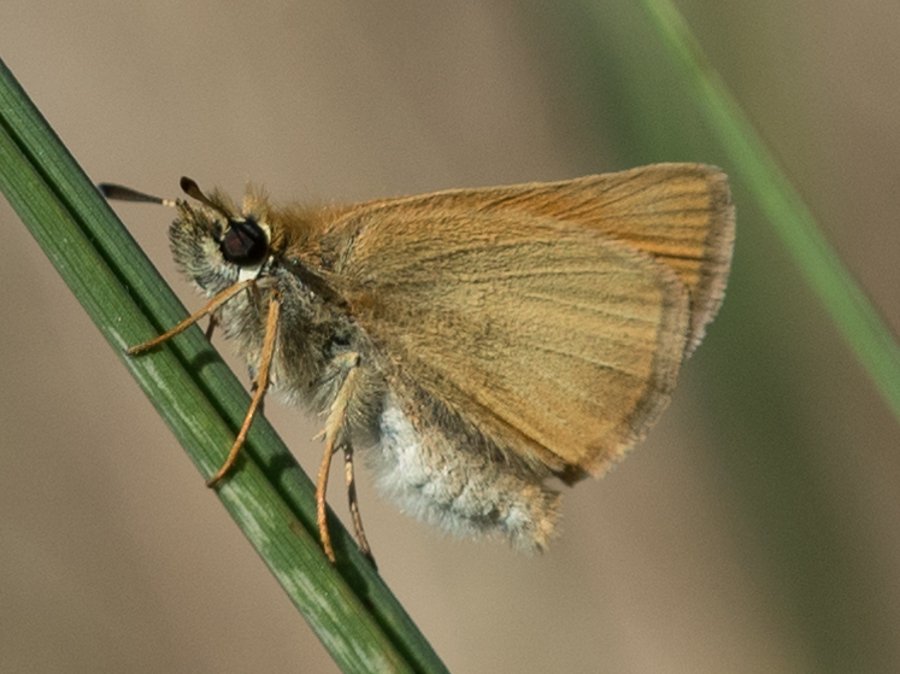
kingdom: Animalia
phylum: Arthropoda
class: Insecta
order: Lepidoptera
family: Hesperiidae
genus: Thymelicus
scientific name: Thymelicus lineola
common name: European Skipper
